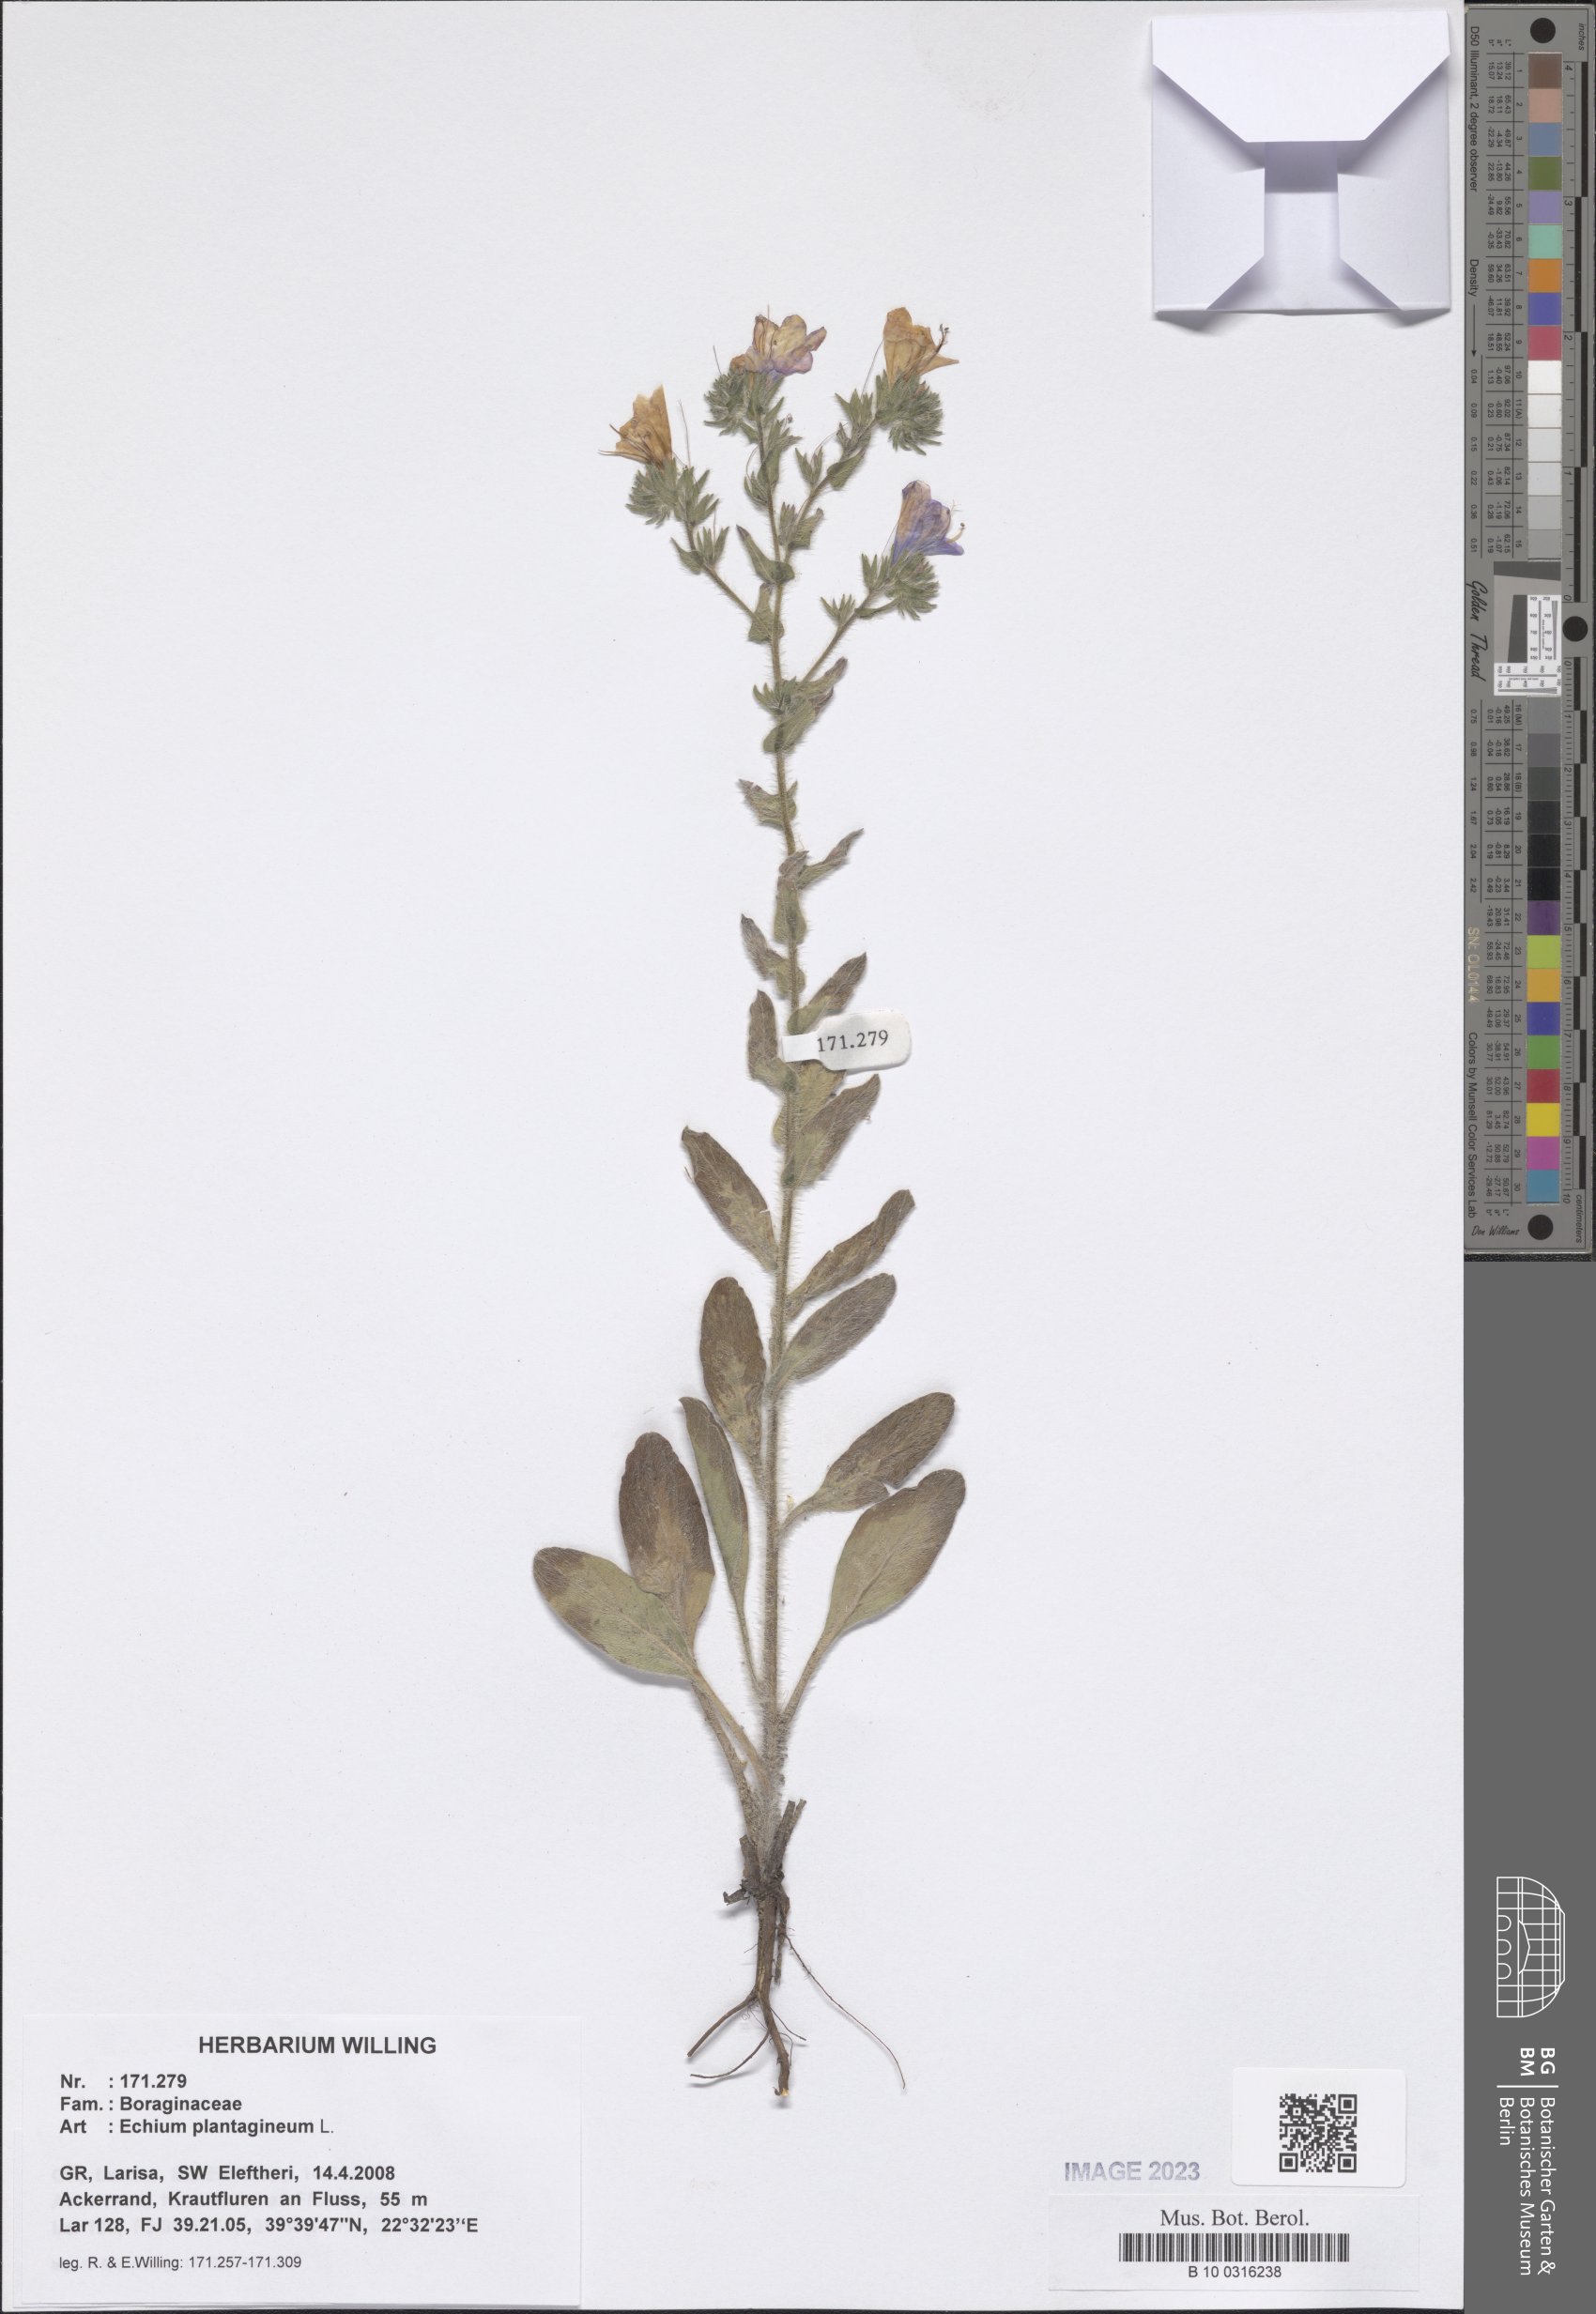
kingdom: Plantae
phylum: Tracheophyta
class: Magnoliopsida
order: Boraginales
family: Boraginaceae
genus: Echium
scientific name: Echium plantagineum
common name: Purple viper's-bugloss
